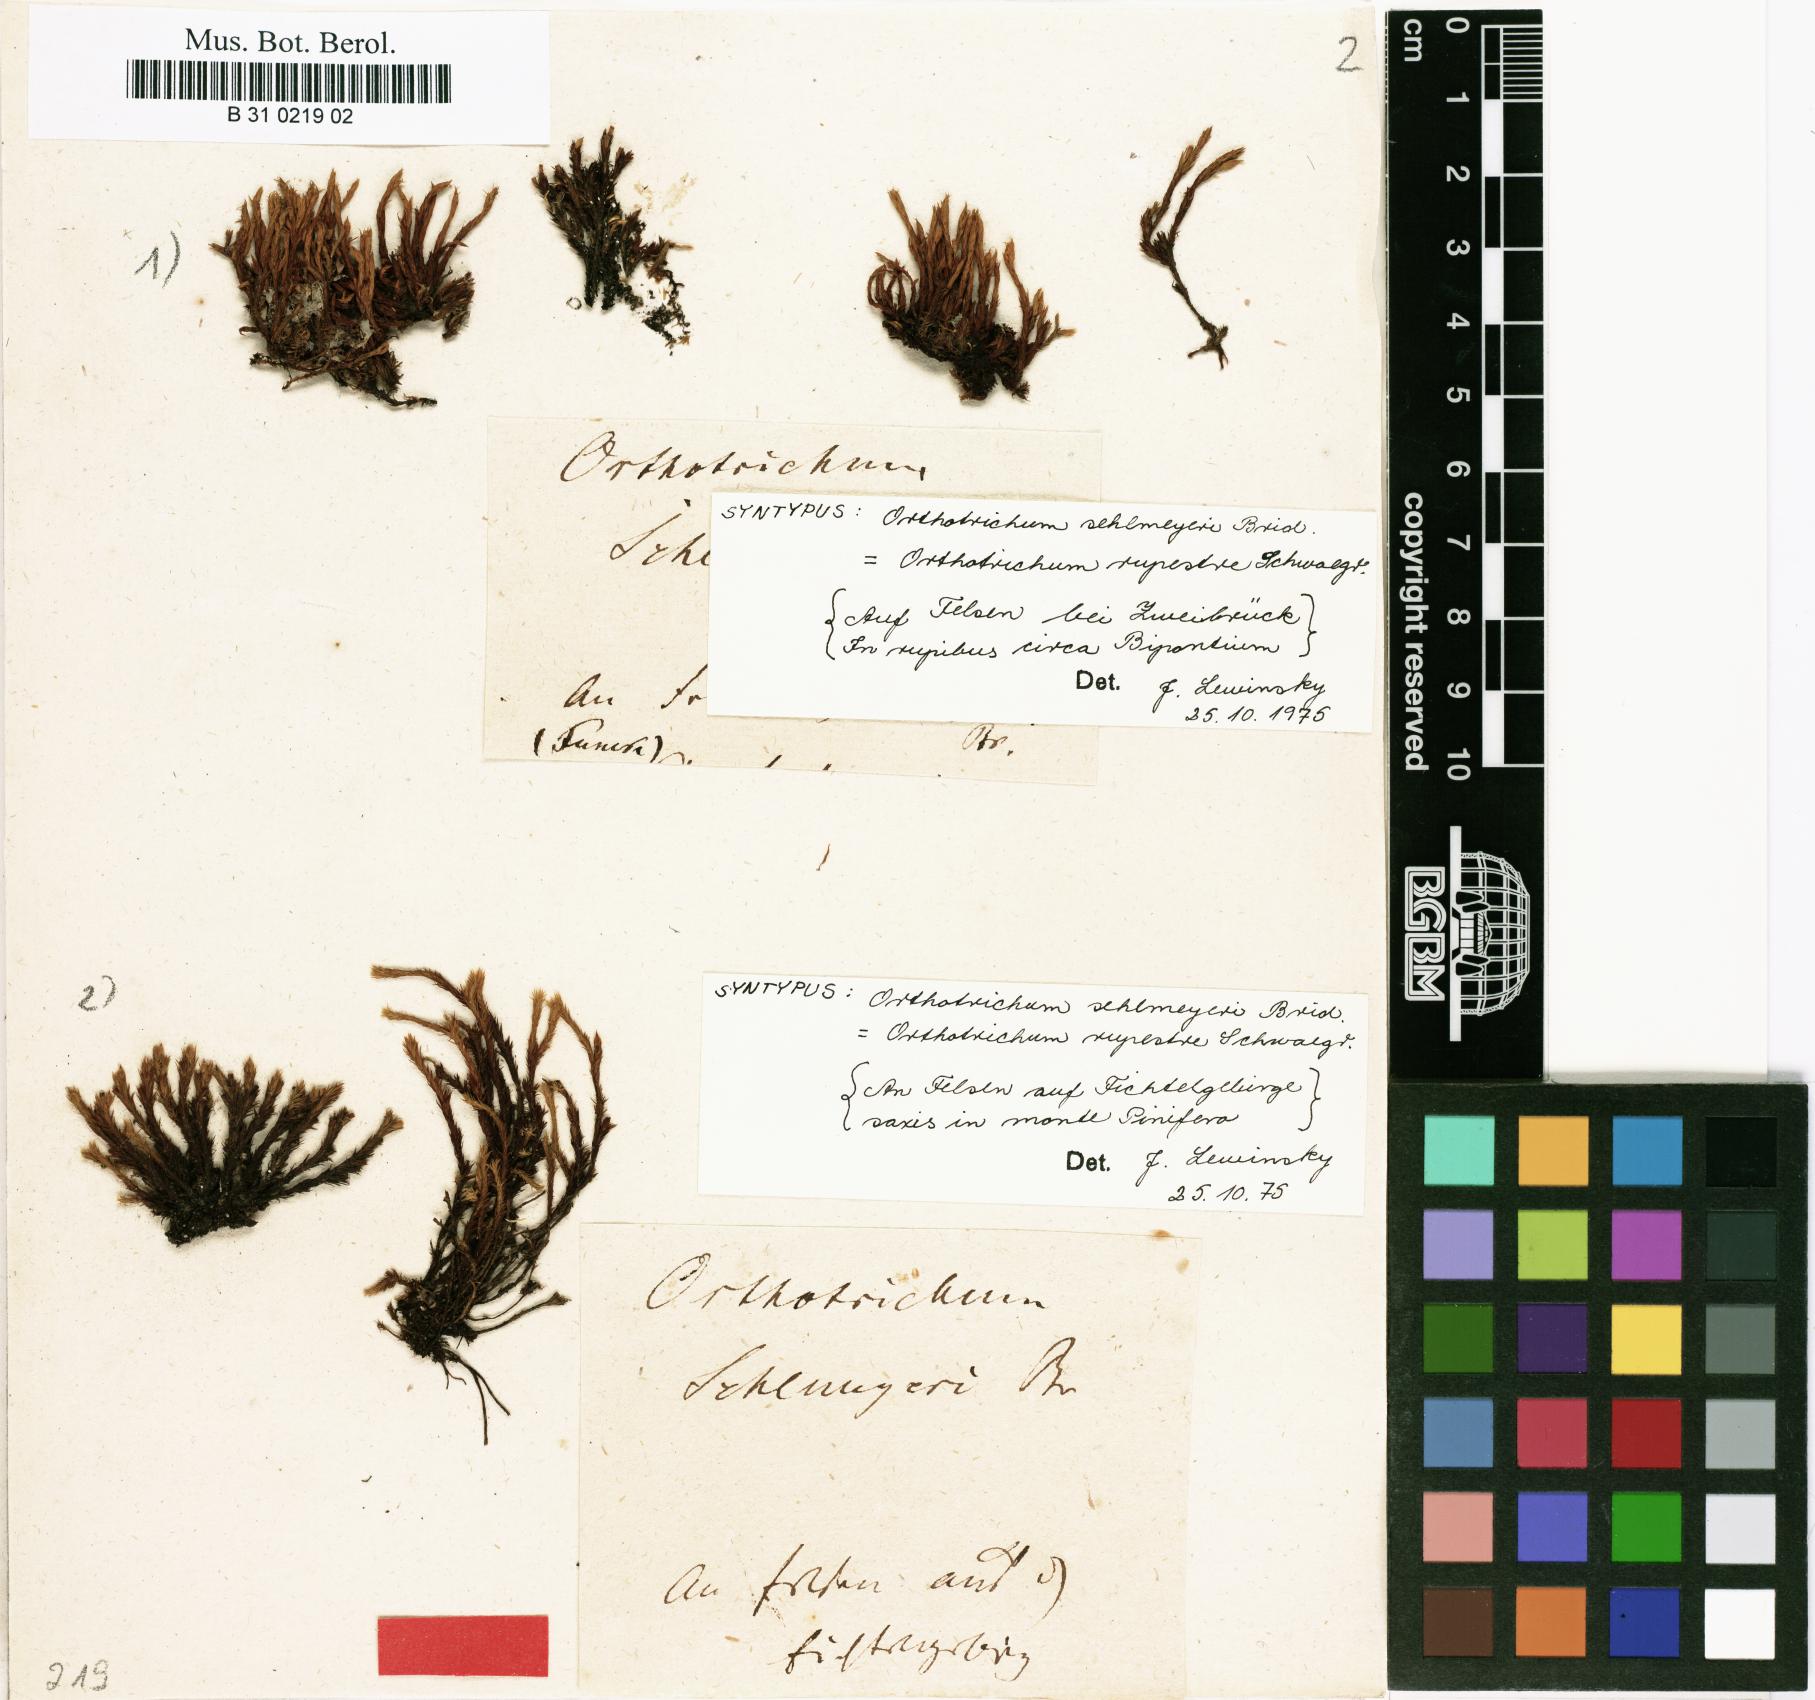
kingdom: Plantae
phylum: Bryophyta
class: Bryopsida
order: Orthotrichales
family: Orthotrichaceae
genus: Lewinskya
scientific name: Lewinskya rupestris
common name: Rock bristle-moss
